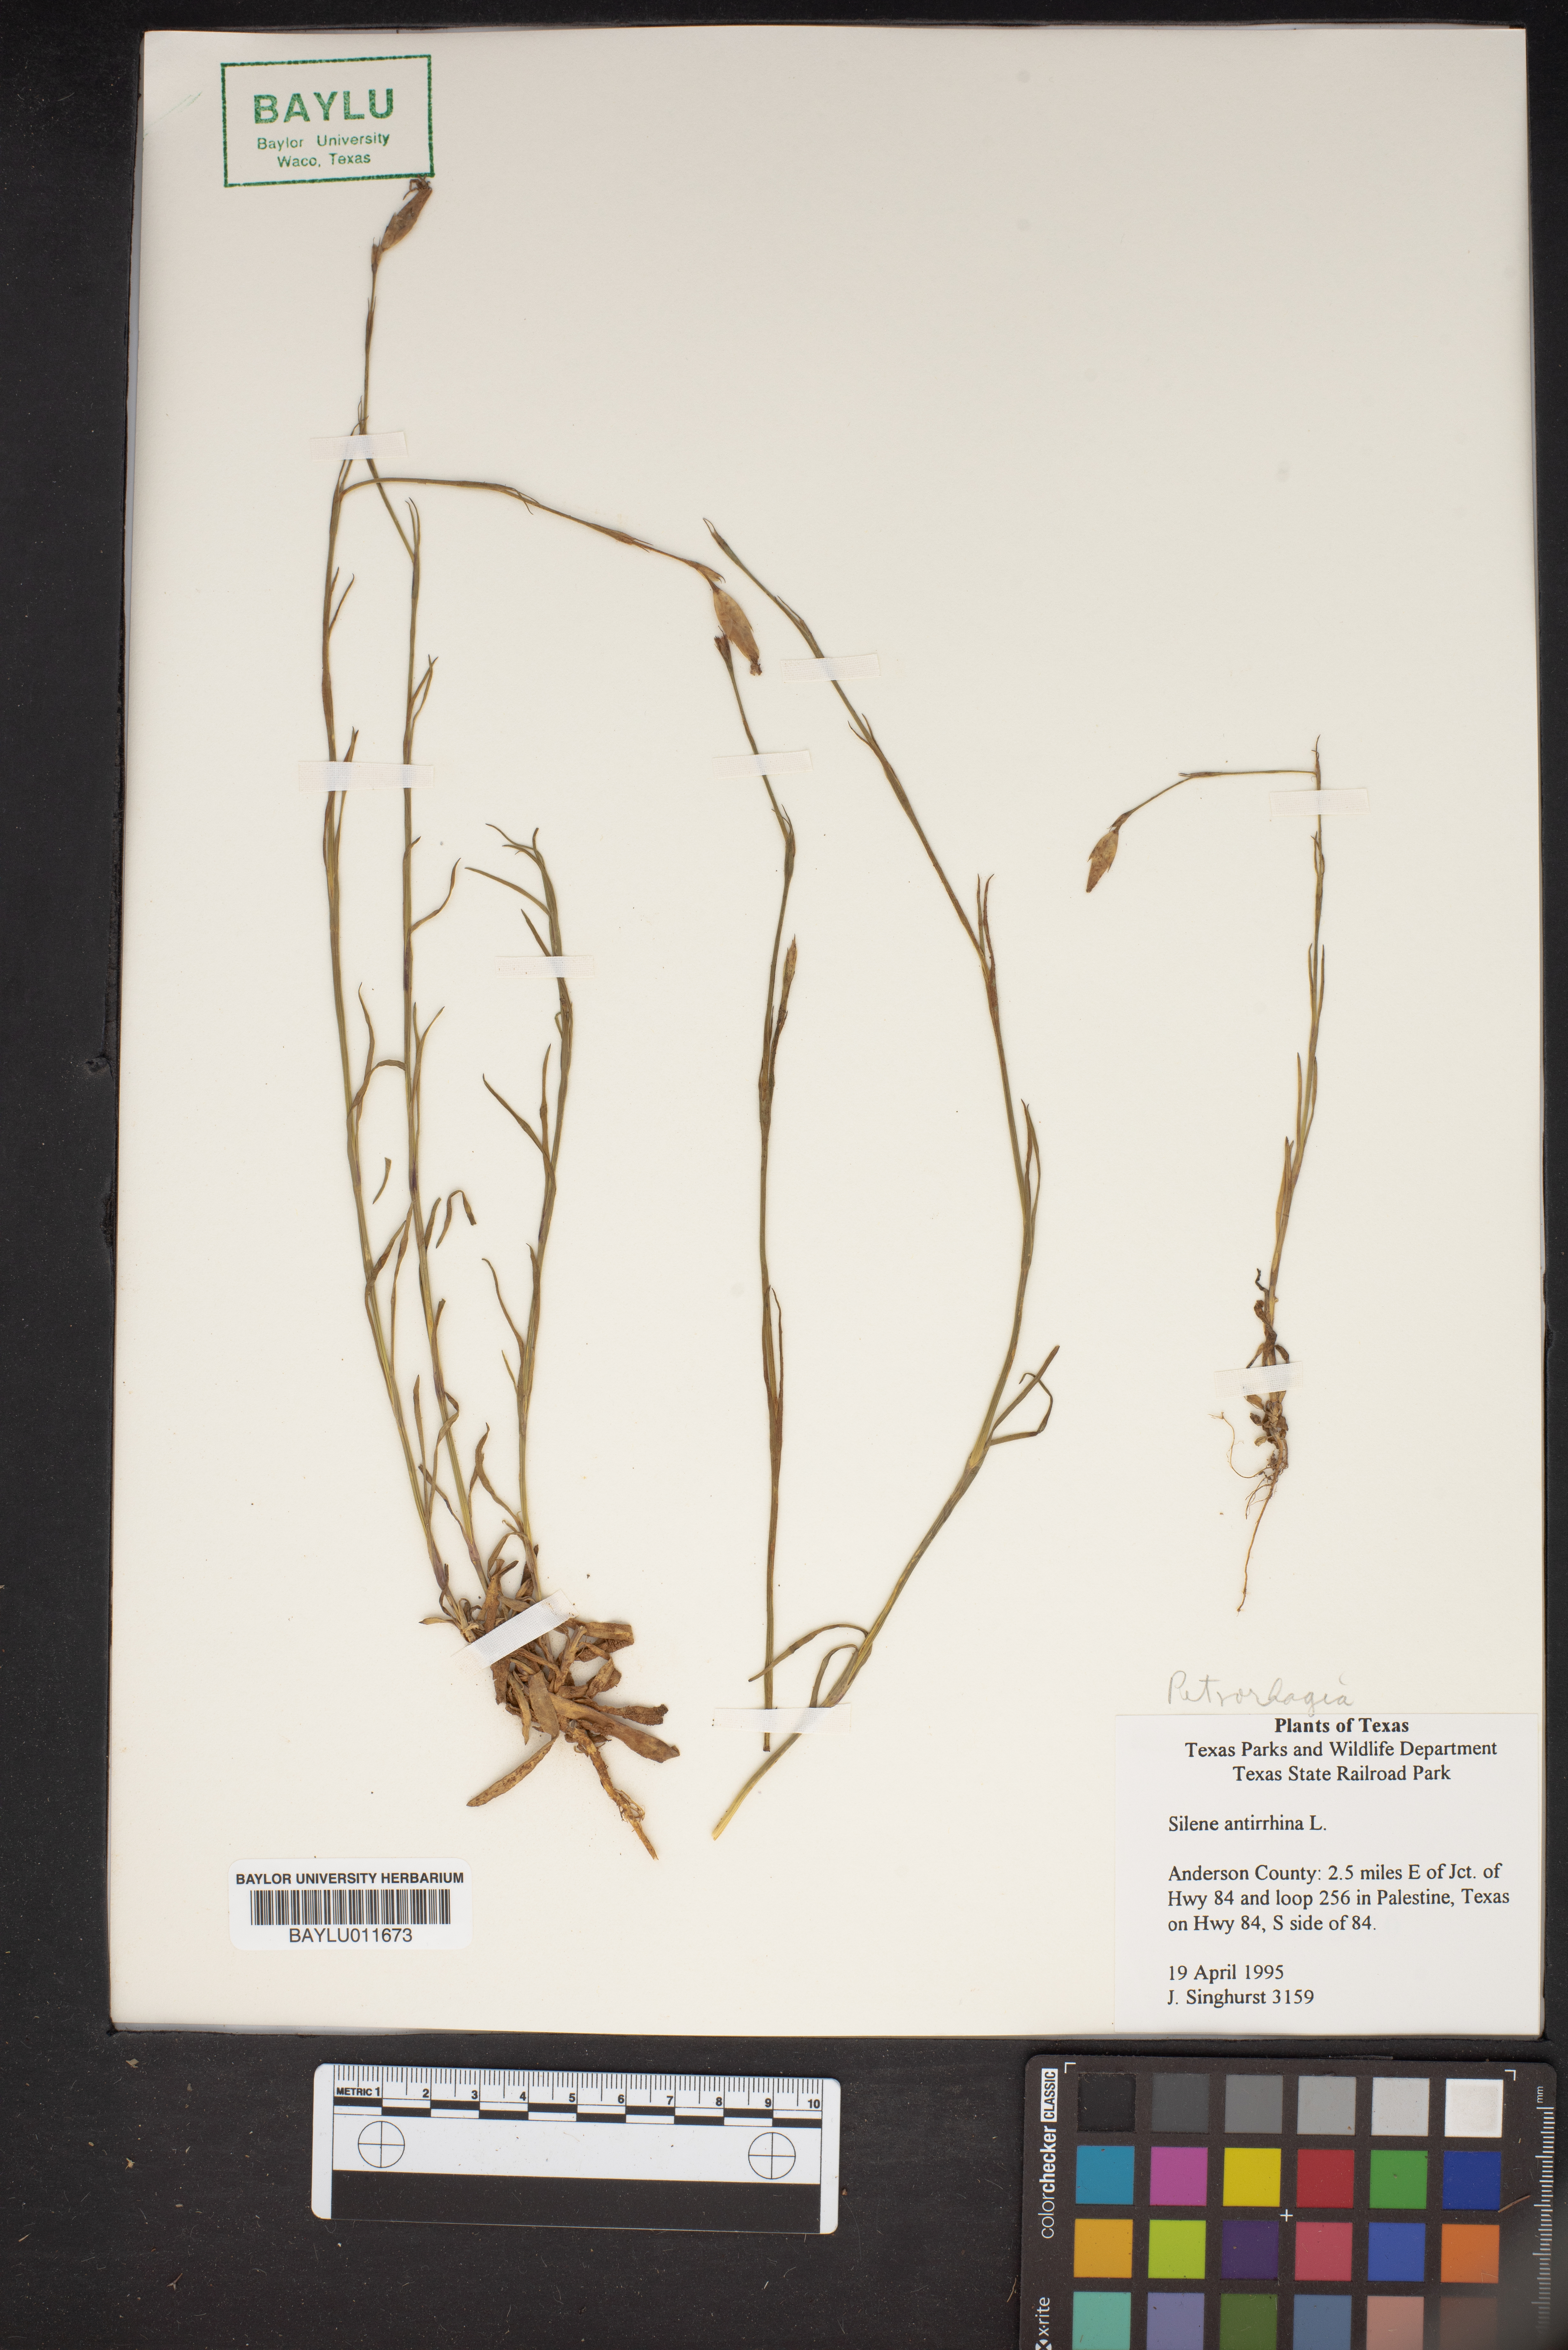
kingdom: Plantae
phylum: Tracheophyta
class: Magnoliopsida
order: Caryophyllales
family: Caryophyllaceae
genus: Silene
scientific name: Silene antirrhina
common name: Sleepy catchfly
